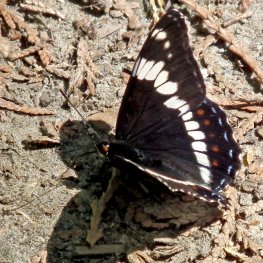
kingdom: Animalia
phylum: Arthropoda
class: Insecta
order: Lepidoptera
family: Nymphalidae
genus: Limenitis
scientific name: Limenitis arthemis
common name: Red-spotted Admiral
